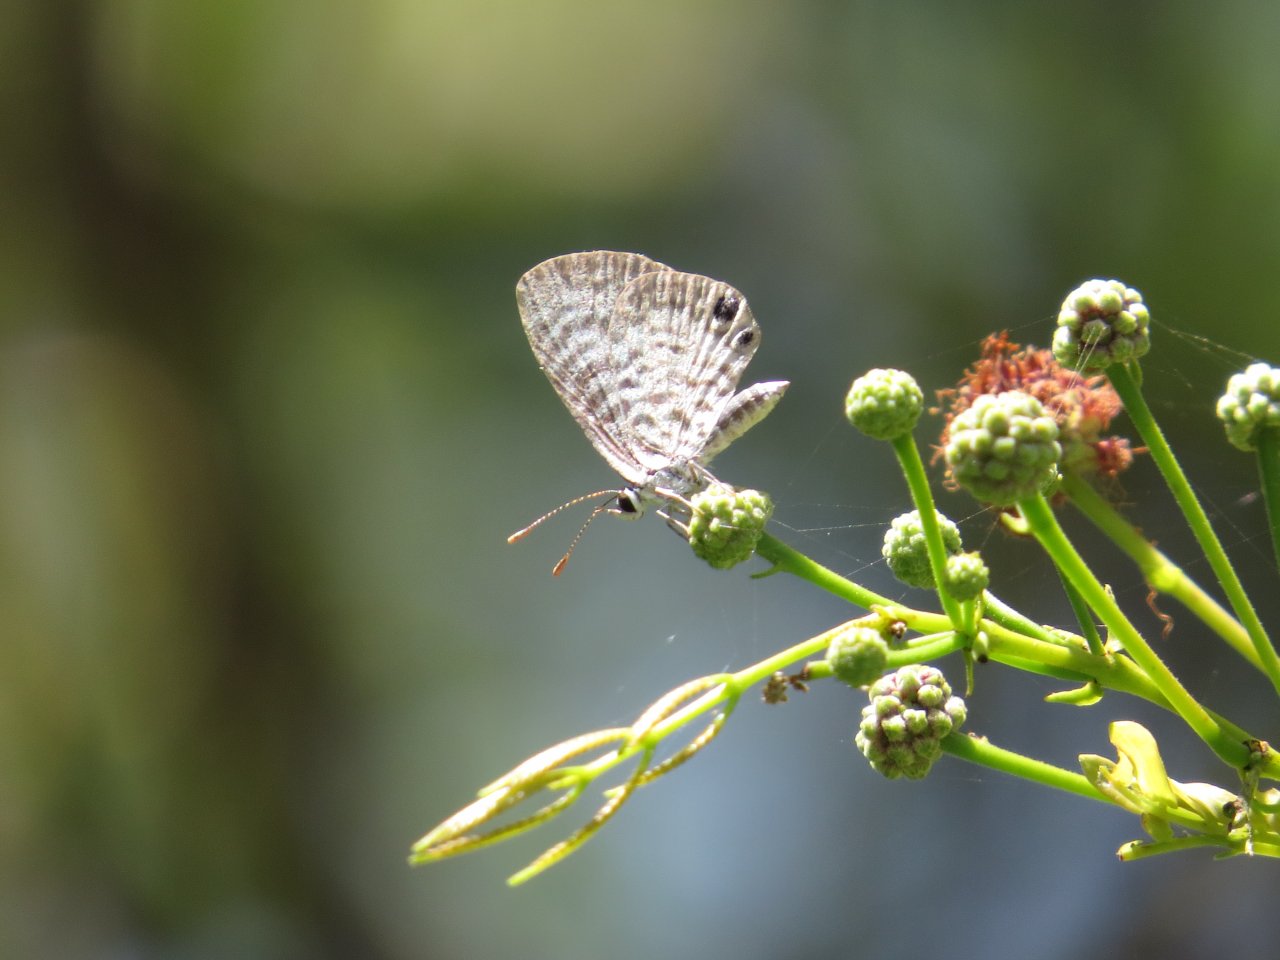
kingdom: Animalia
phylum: Arthropoda
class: Insecta
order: Lepidoptera
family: Lycaenidae
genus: Leptotes
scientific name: Leptotes cassius
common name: Cassius Blue
